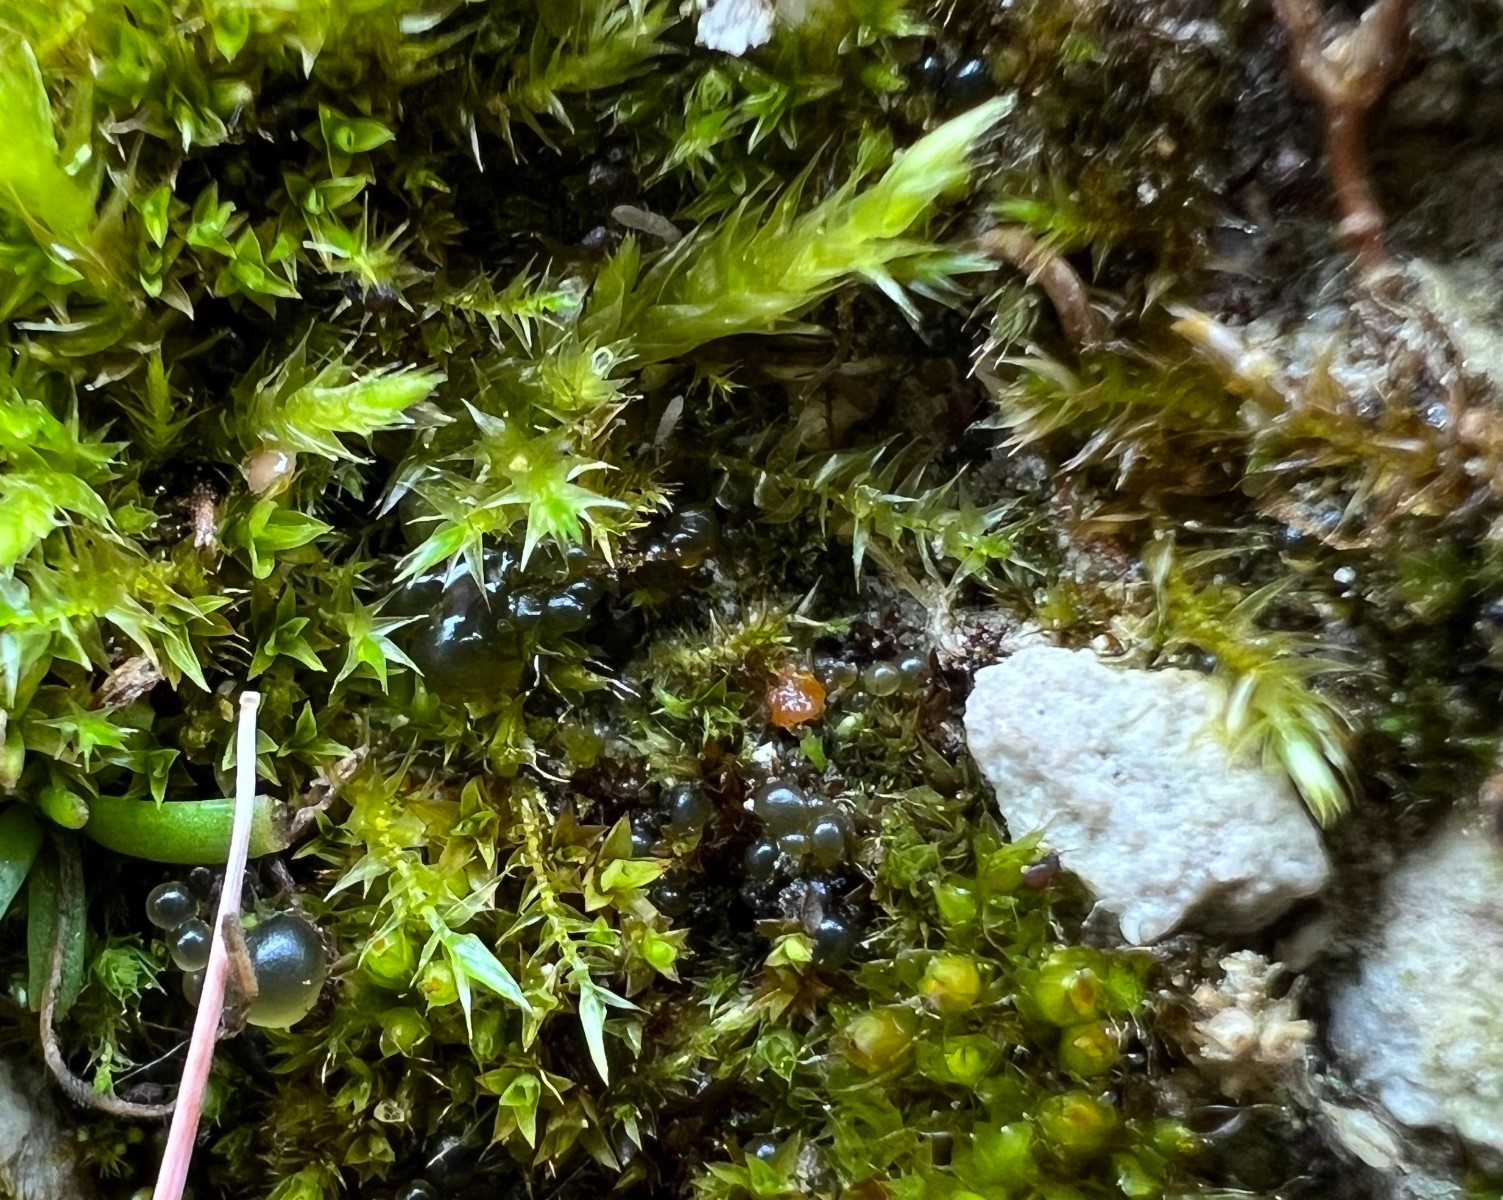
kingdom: Fungi
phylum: Ascomycota
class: Pezizomycetes
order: Pezizales
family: Pyronemataceae
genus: Inermisia
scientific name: Inermisia gyalectoides
